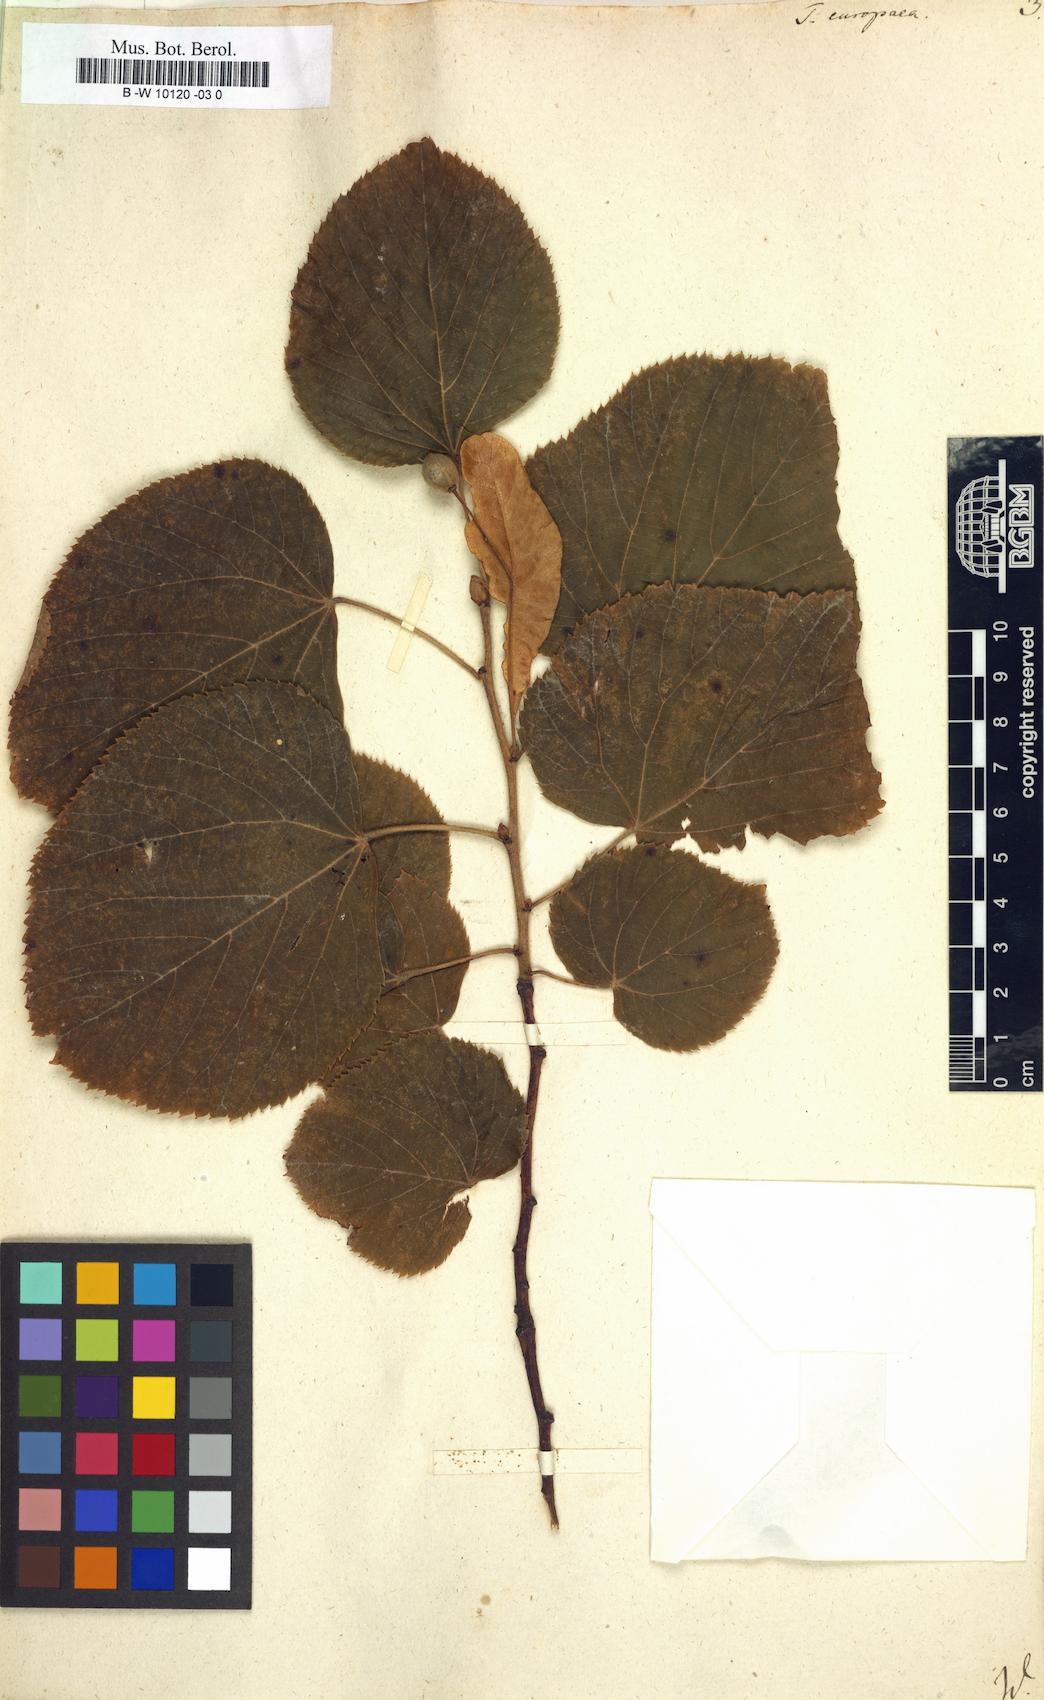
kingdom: Plantae
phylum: Tracheophyta
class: Magnoliopsida
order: Malvales
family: Malvaceae
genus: Tilia
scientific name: Tilia europaea
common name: European linden
